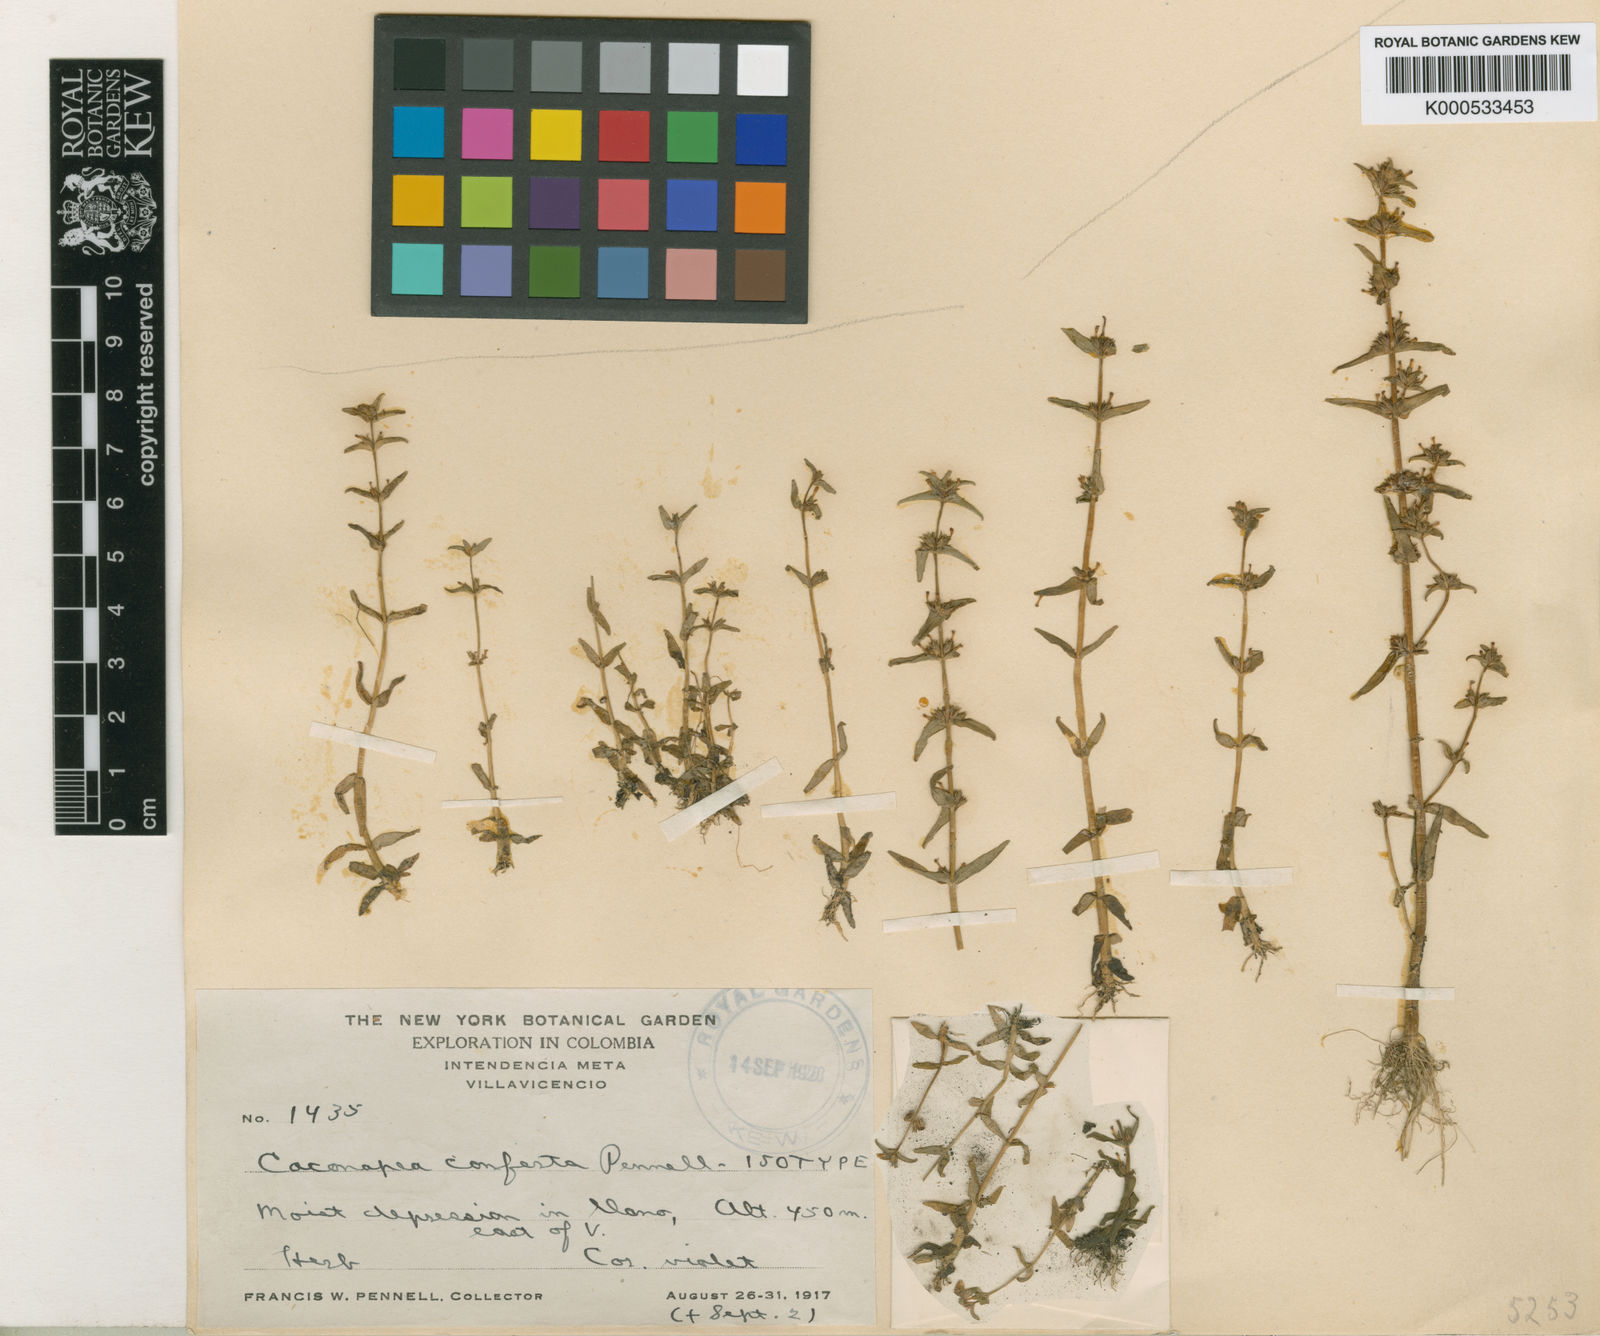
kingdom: Plantae
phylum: Tracheophyta
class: Magnoliopsida
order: Lamiales
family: Plantaginaceae
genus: Bacopa
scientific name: Bacopa sessiliflora
